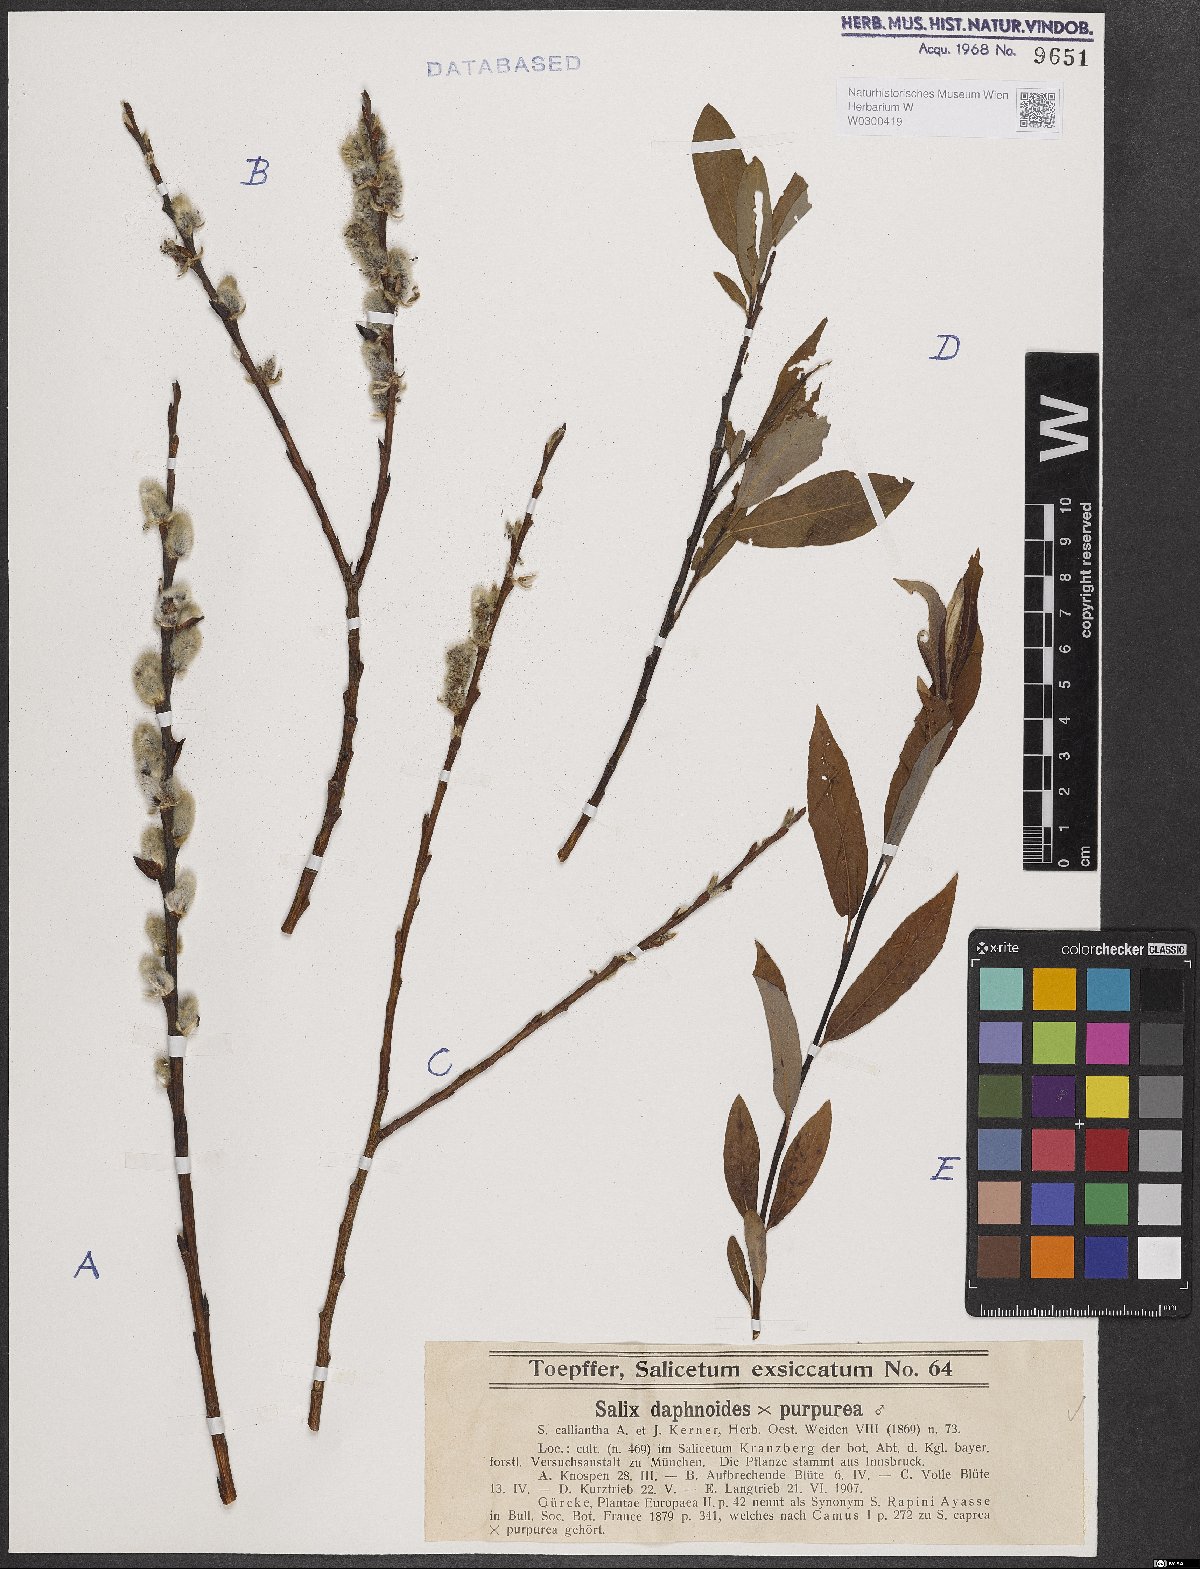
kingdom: Plantae
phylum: Tracheophyta
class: Magnoliopsida
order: Malpighiales
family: Salicaceae
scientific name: Salicaceae
